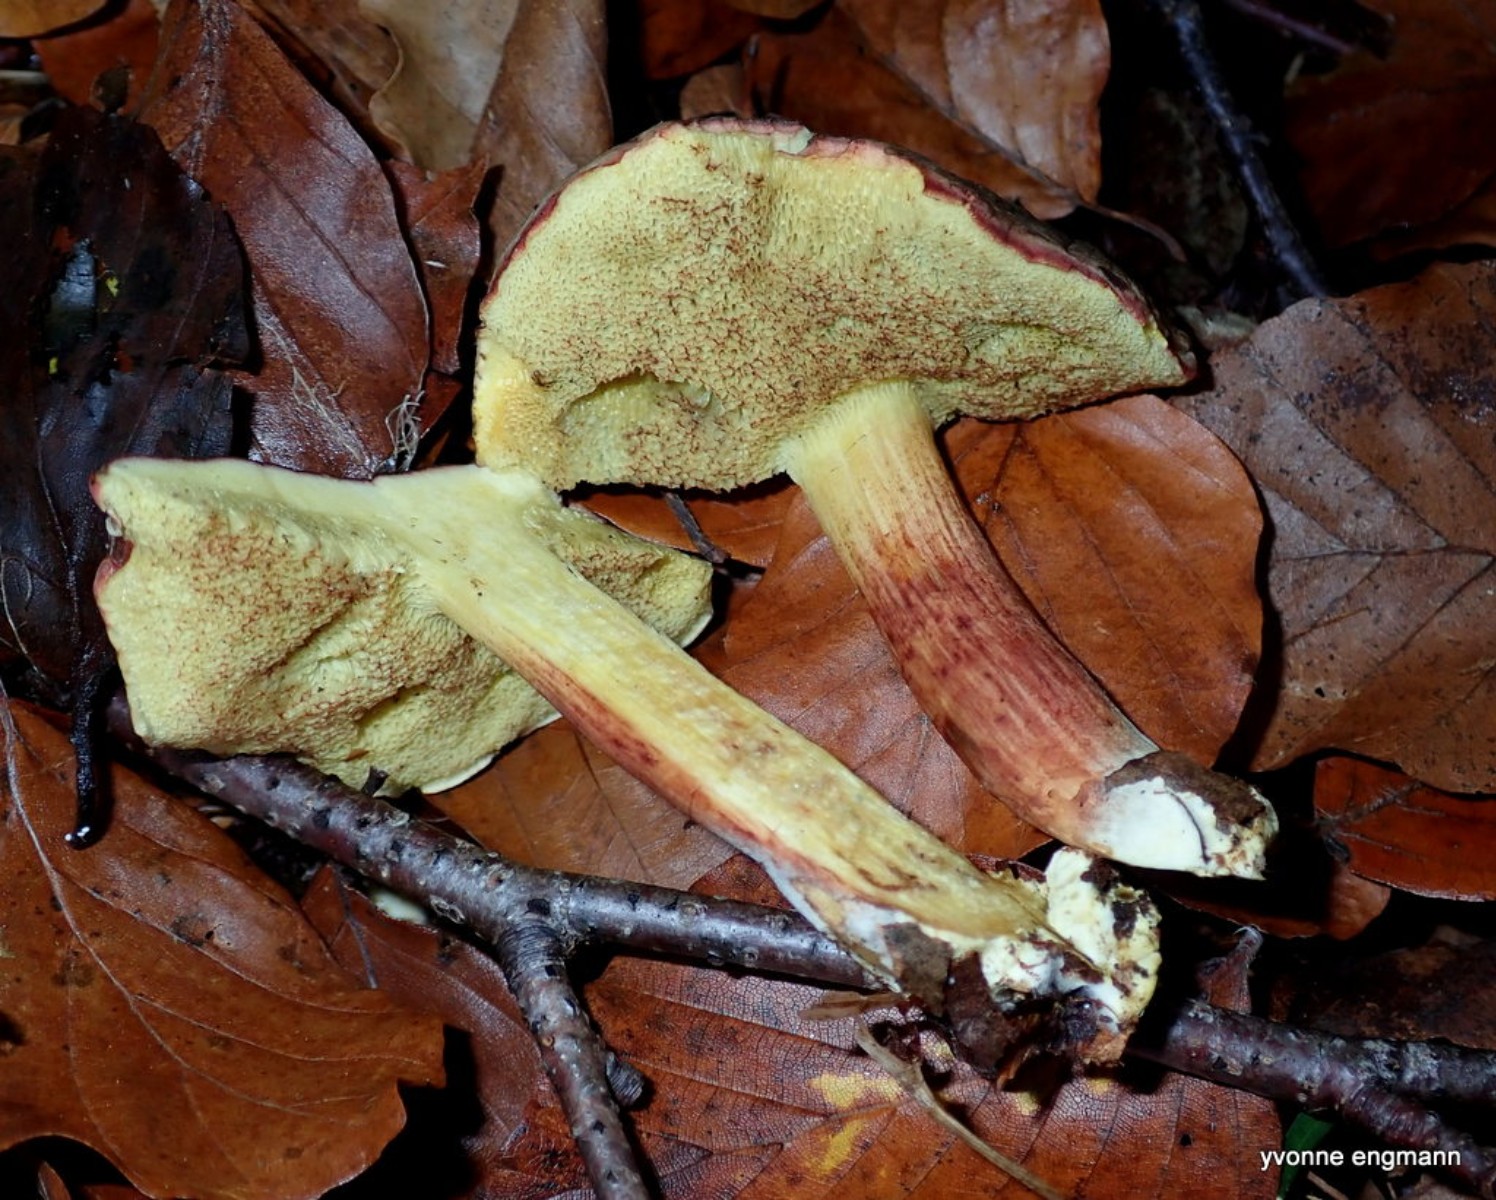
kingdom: Fungi
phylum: Basidiomycota
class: Agaricomycetes
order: Boletales
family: Boletaceae
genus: Xerocomellus
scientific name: Xerocomellus pruinatus
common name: dugget rørhat
